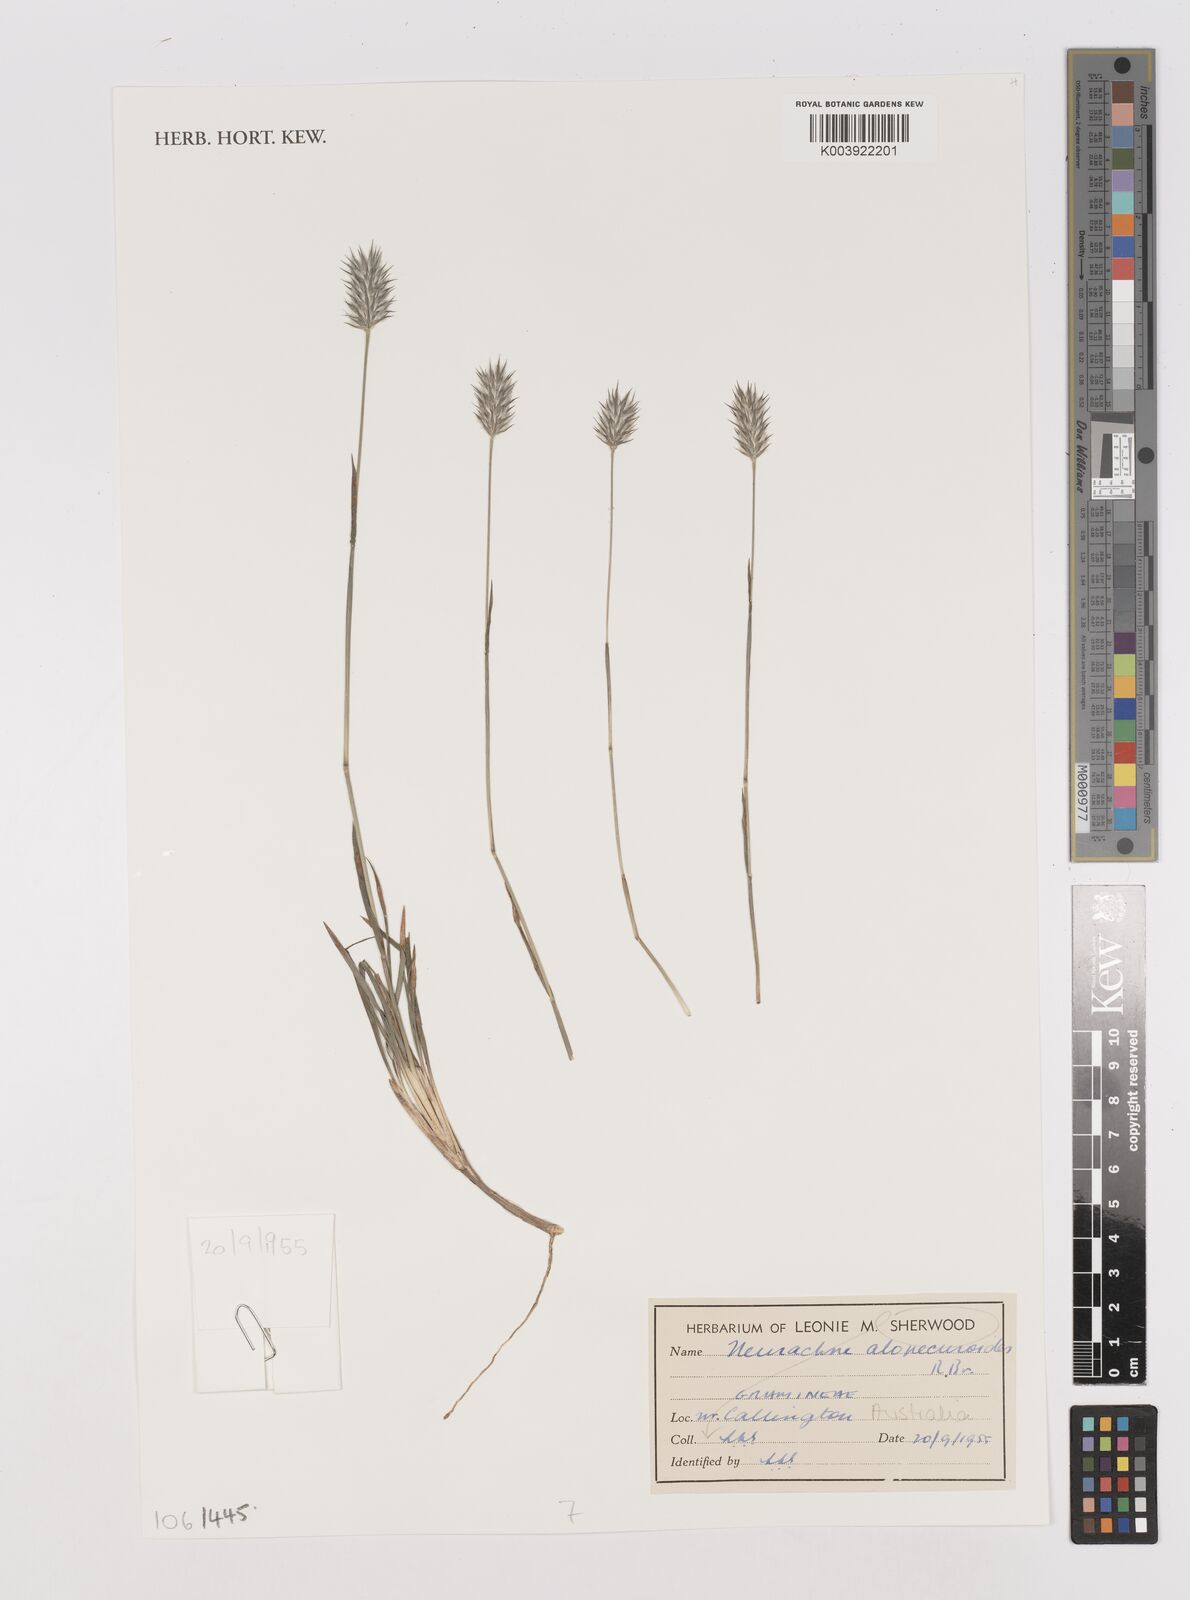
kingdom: Plantae
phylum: Tracheophyta
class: Liliopsida
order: Poales
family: Poaceae
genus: Neurachne
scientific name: Neurachne alopecuroidea
